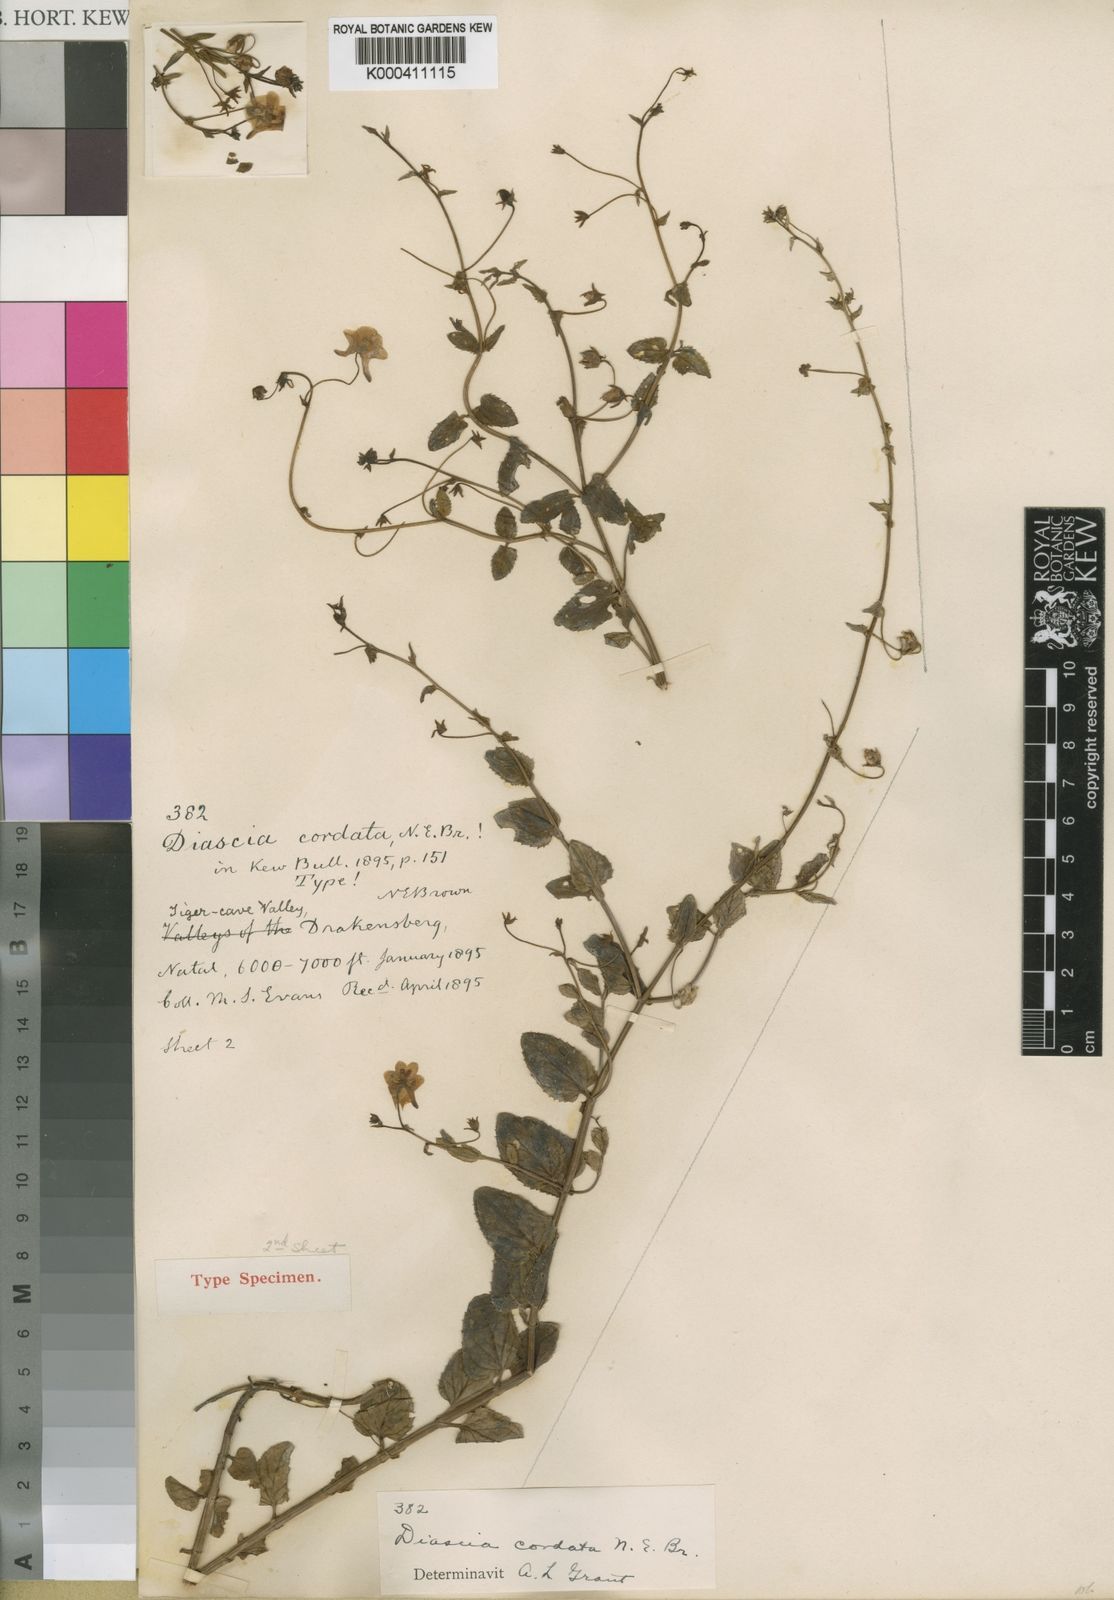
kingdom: Plantae
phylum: Tracheophyta
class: Magnoliopsida
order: Lamiales
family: Scrophulariaceae
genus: Diascia
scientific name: Diascia cordata
